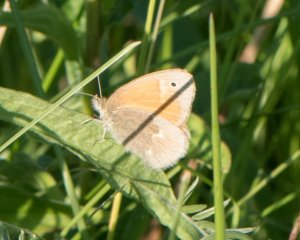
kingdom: Animalia
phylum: Arthropoda
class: Insecta
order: Lepidoptera
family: Nymphalidae
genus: Coenonympha
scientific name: Coenonympha tullia
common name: Large Heath
